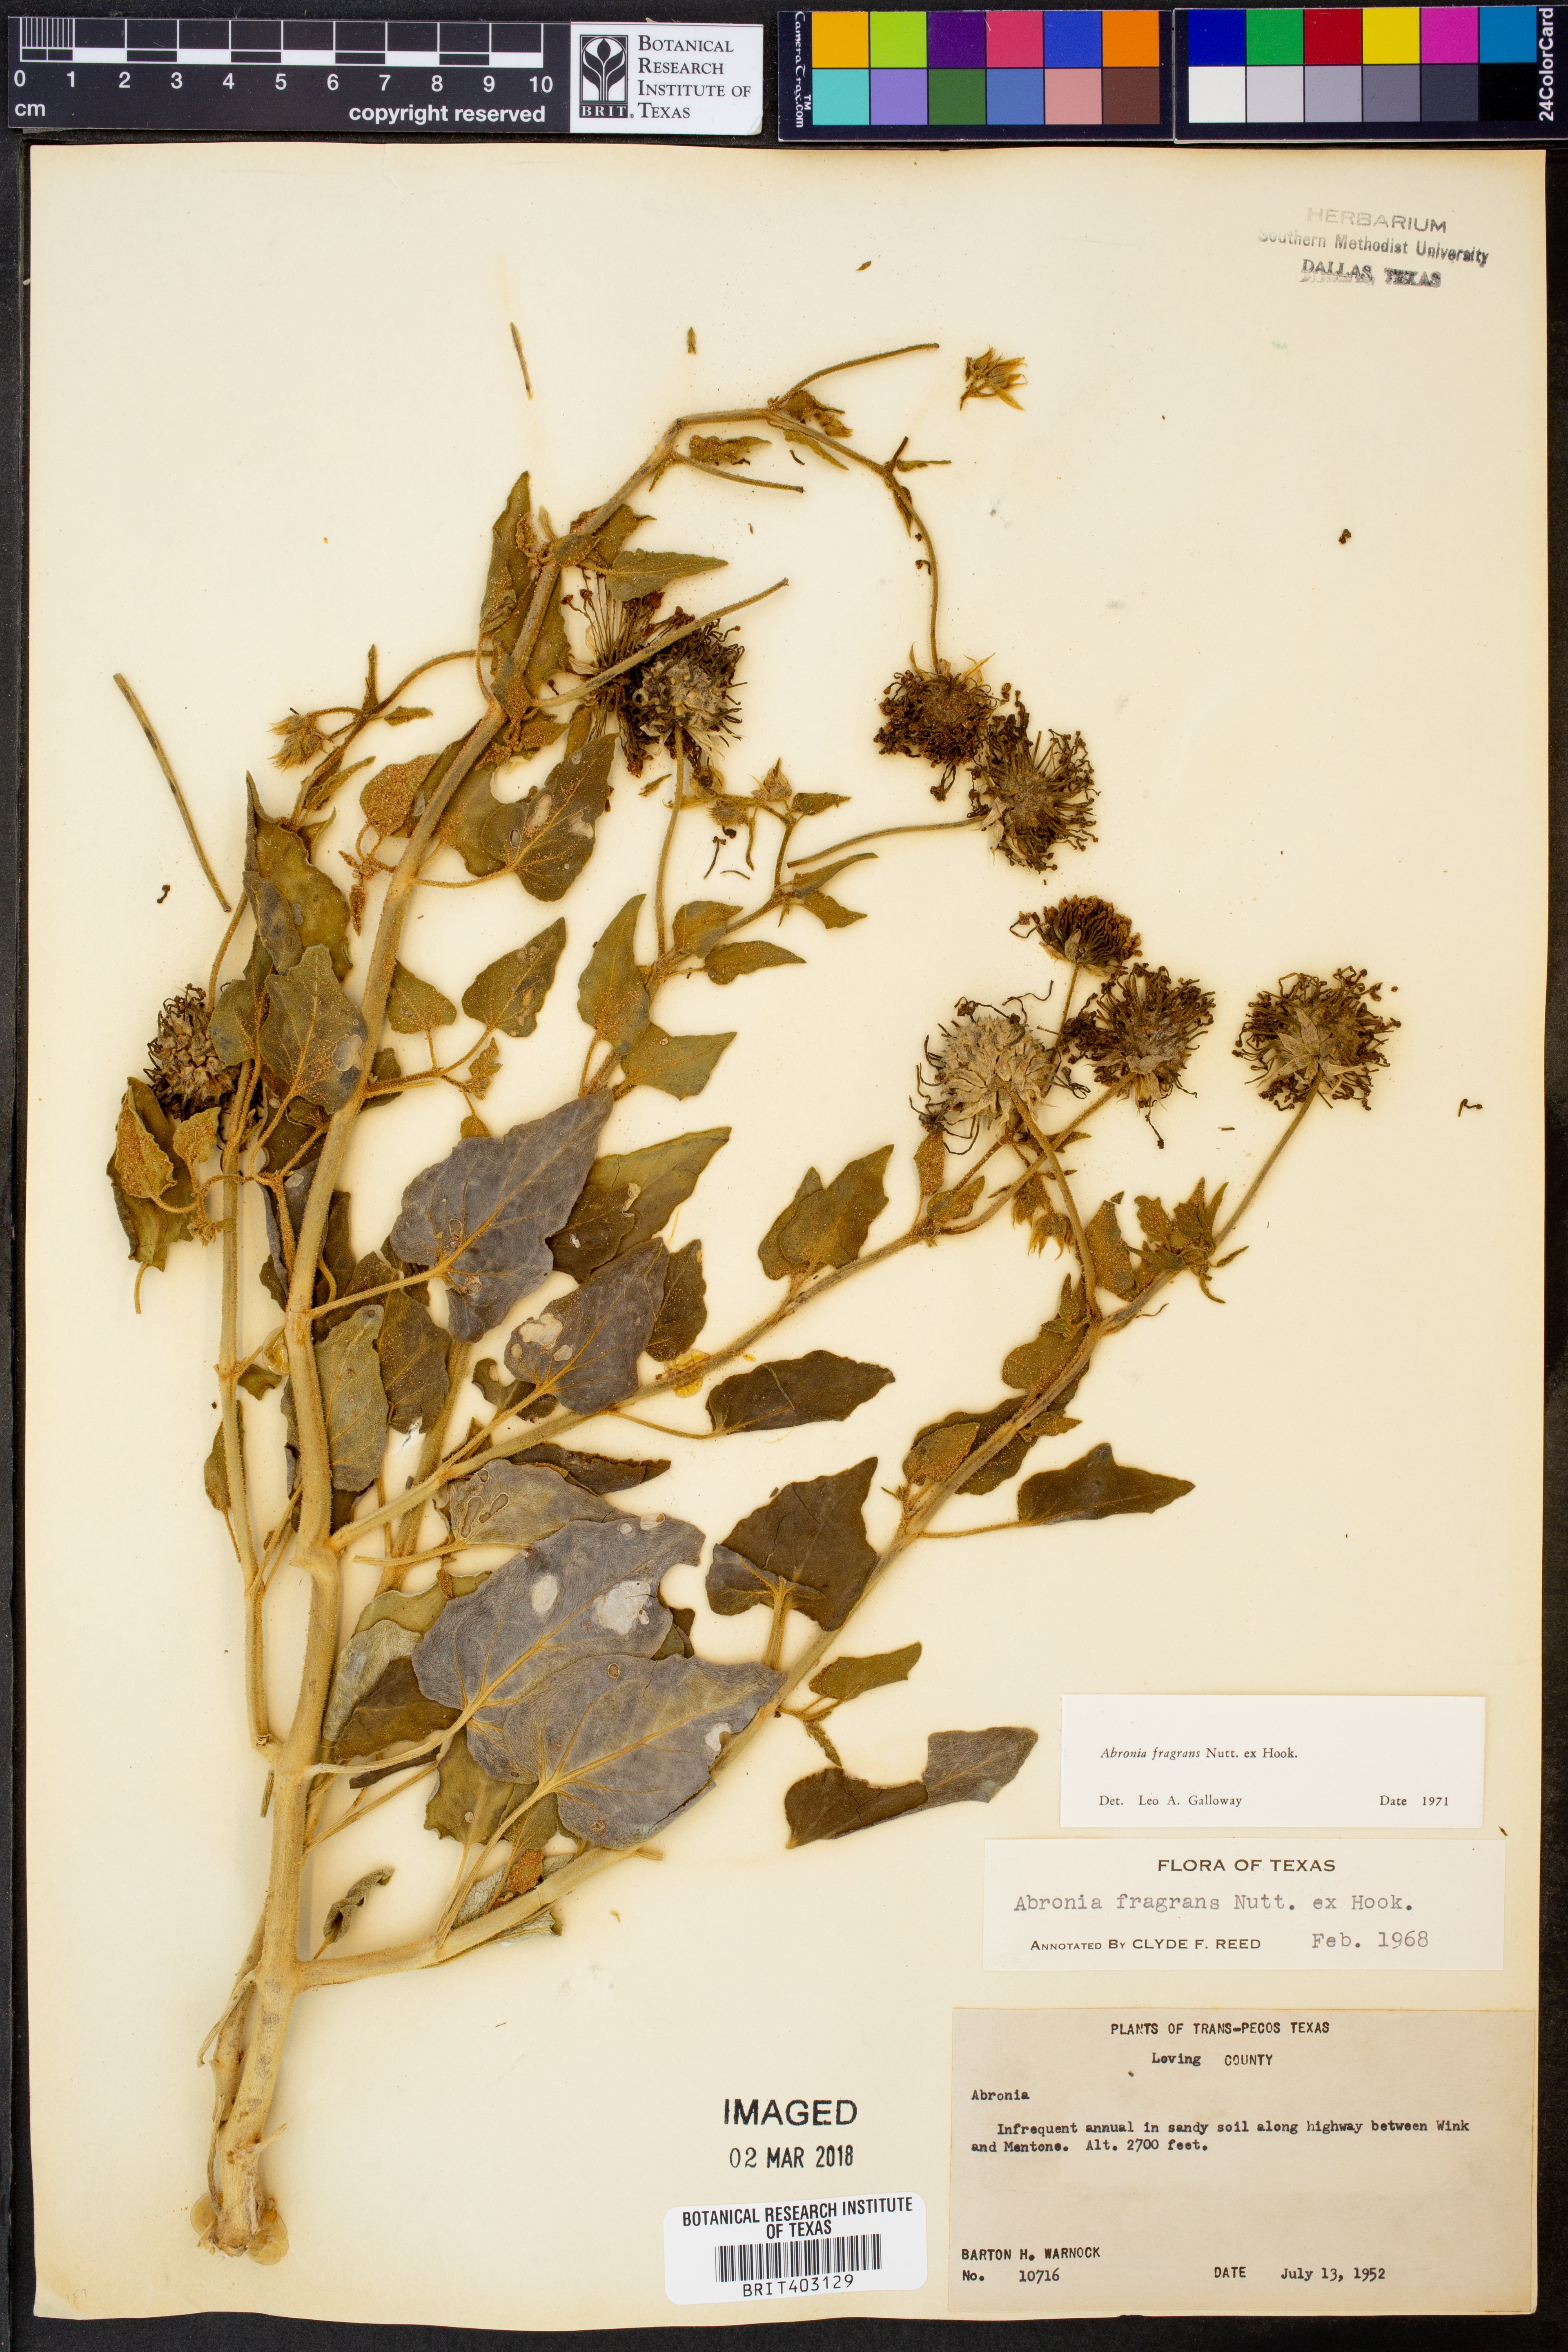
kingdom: Plantae
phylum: Tracheophyta
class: Magnoliopsida
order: Caryophyllales
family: Nyctaginaceae
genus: Abronia
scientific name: Abronia fragrans
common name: Fragrant sand-verbena
